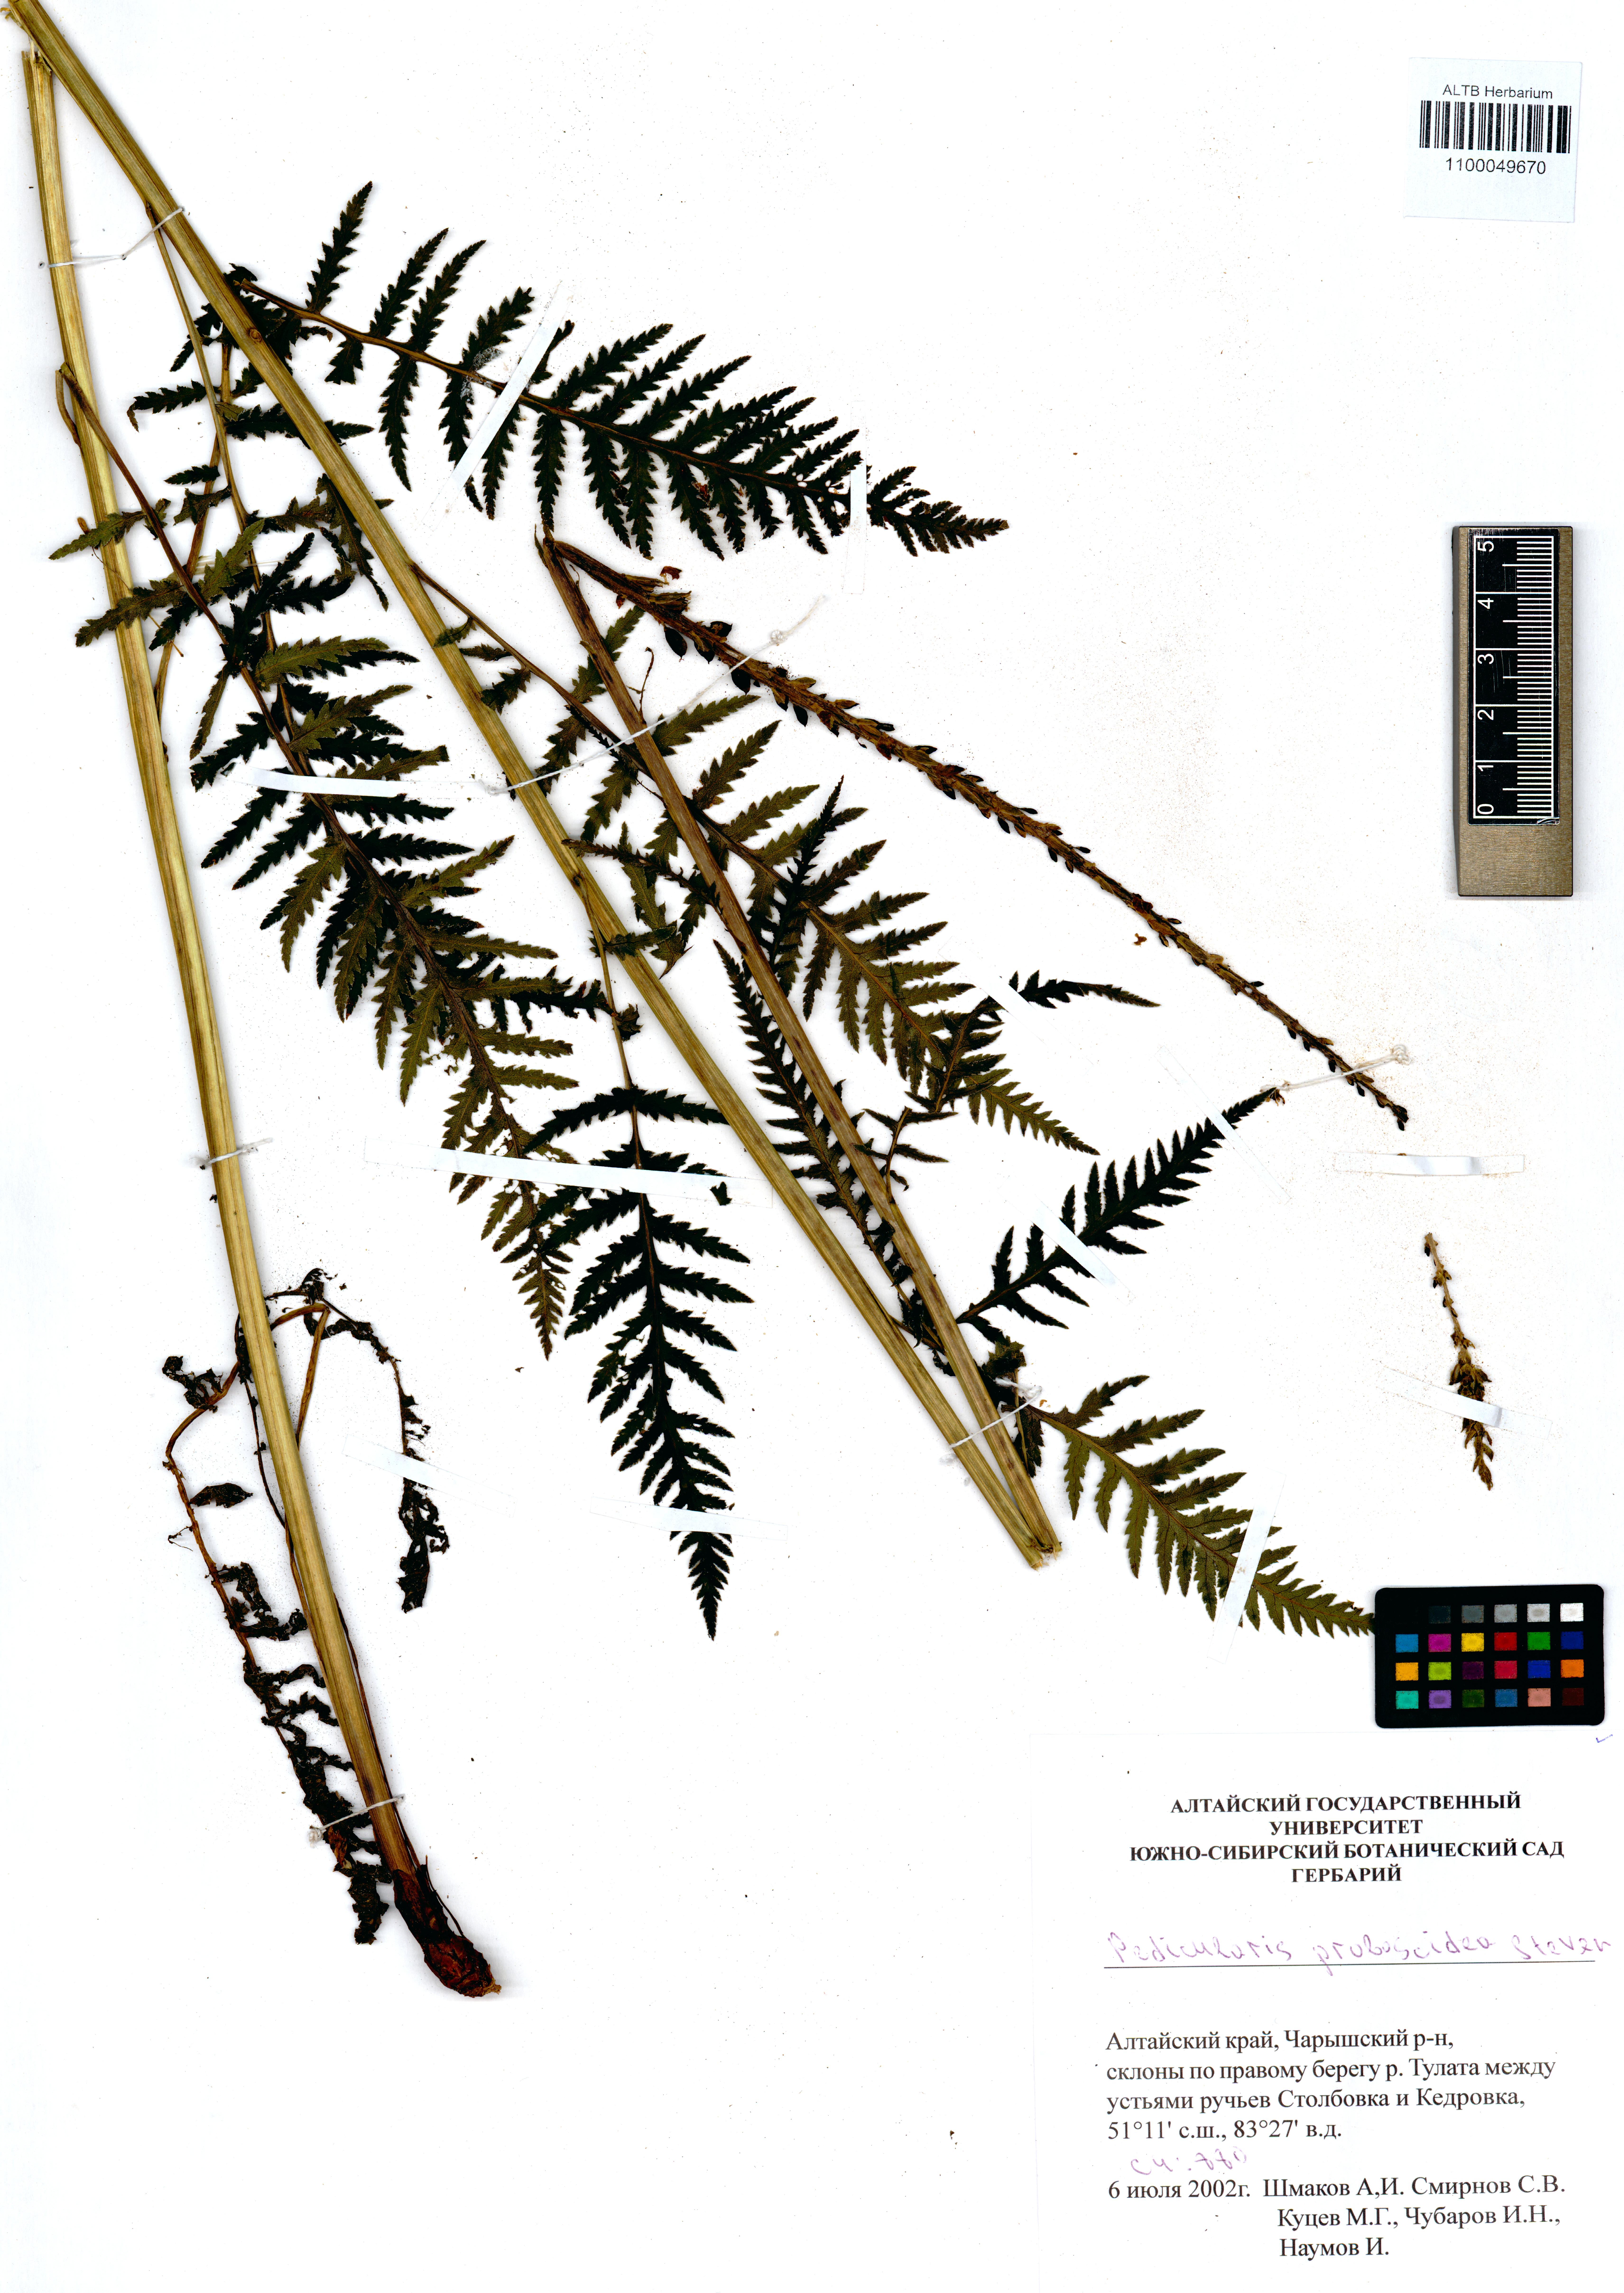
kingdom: Plantae
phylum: Tracheophyta
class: Magnoliopsida
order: Lamiales
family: Orobanchaceae
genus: Pedicularis
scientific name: Pedicularis proboscidea
